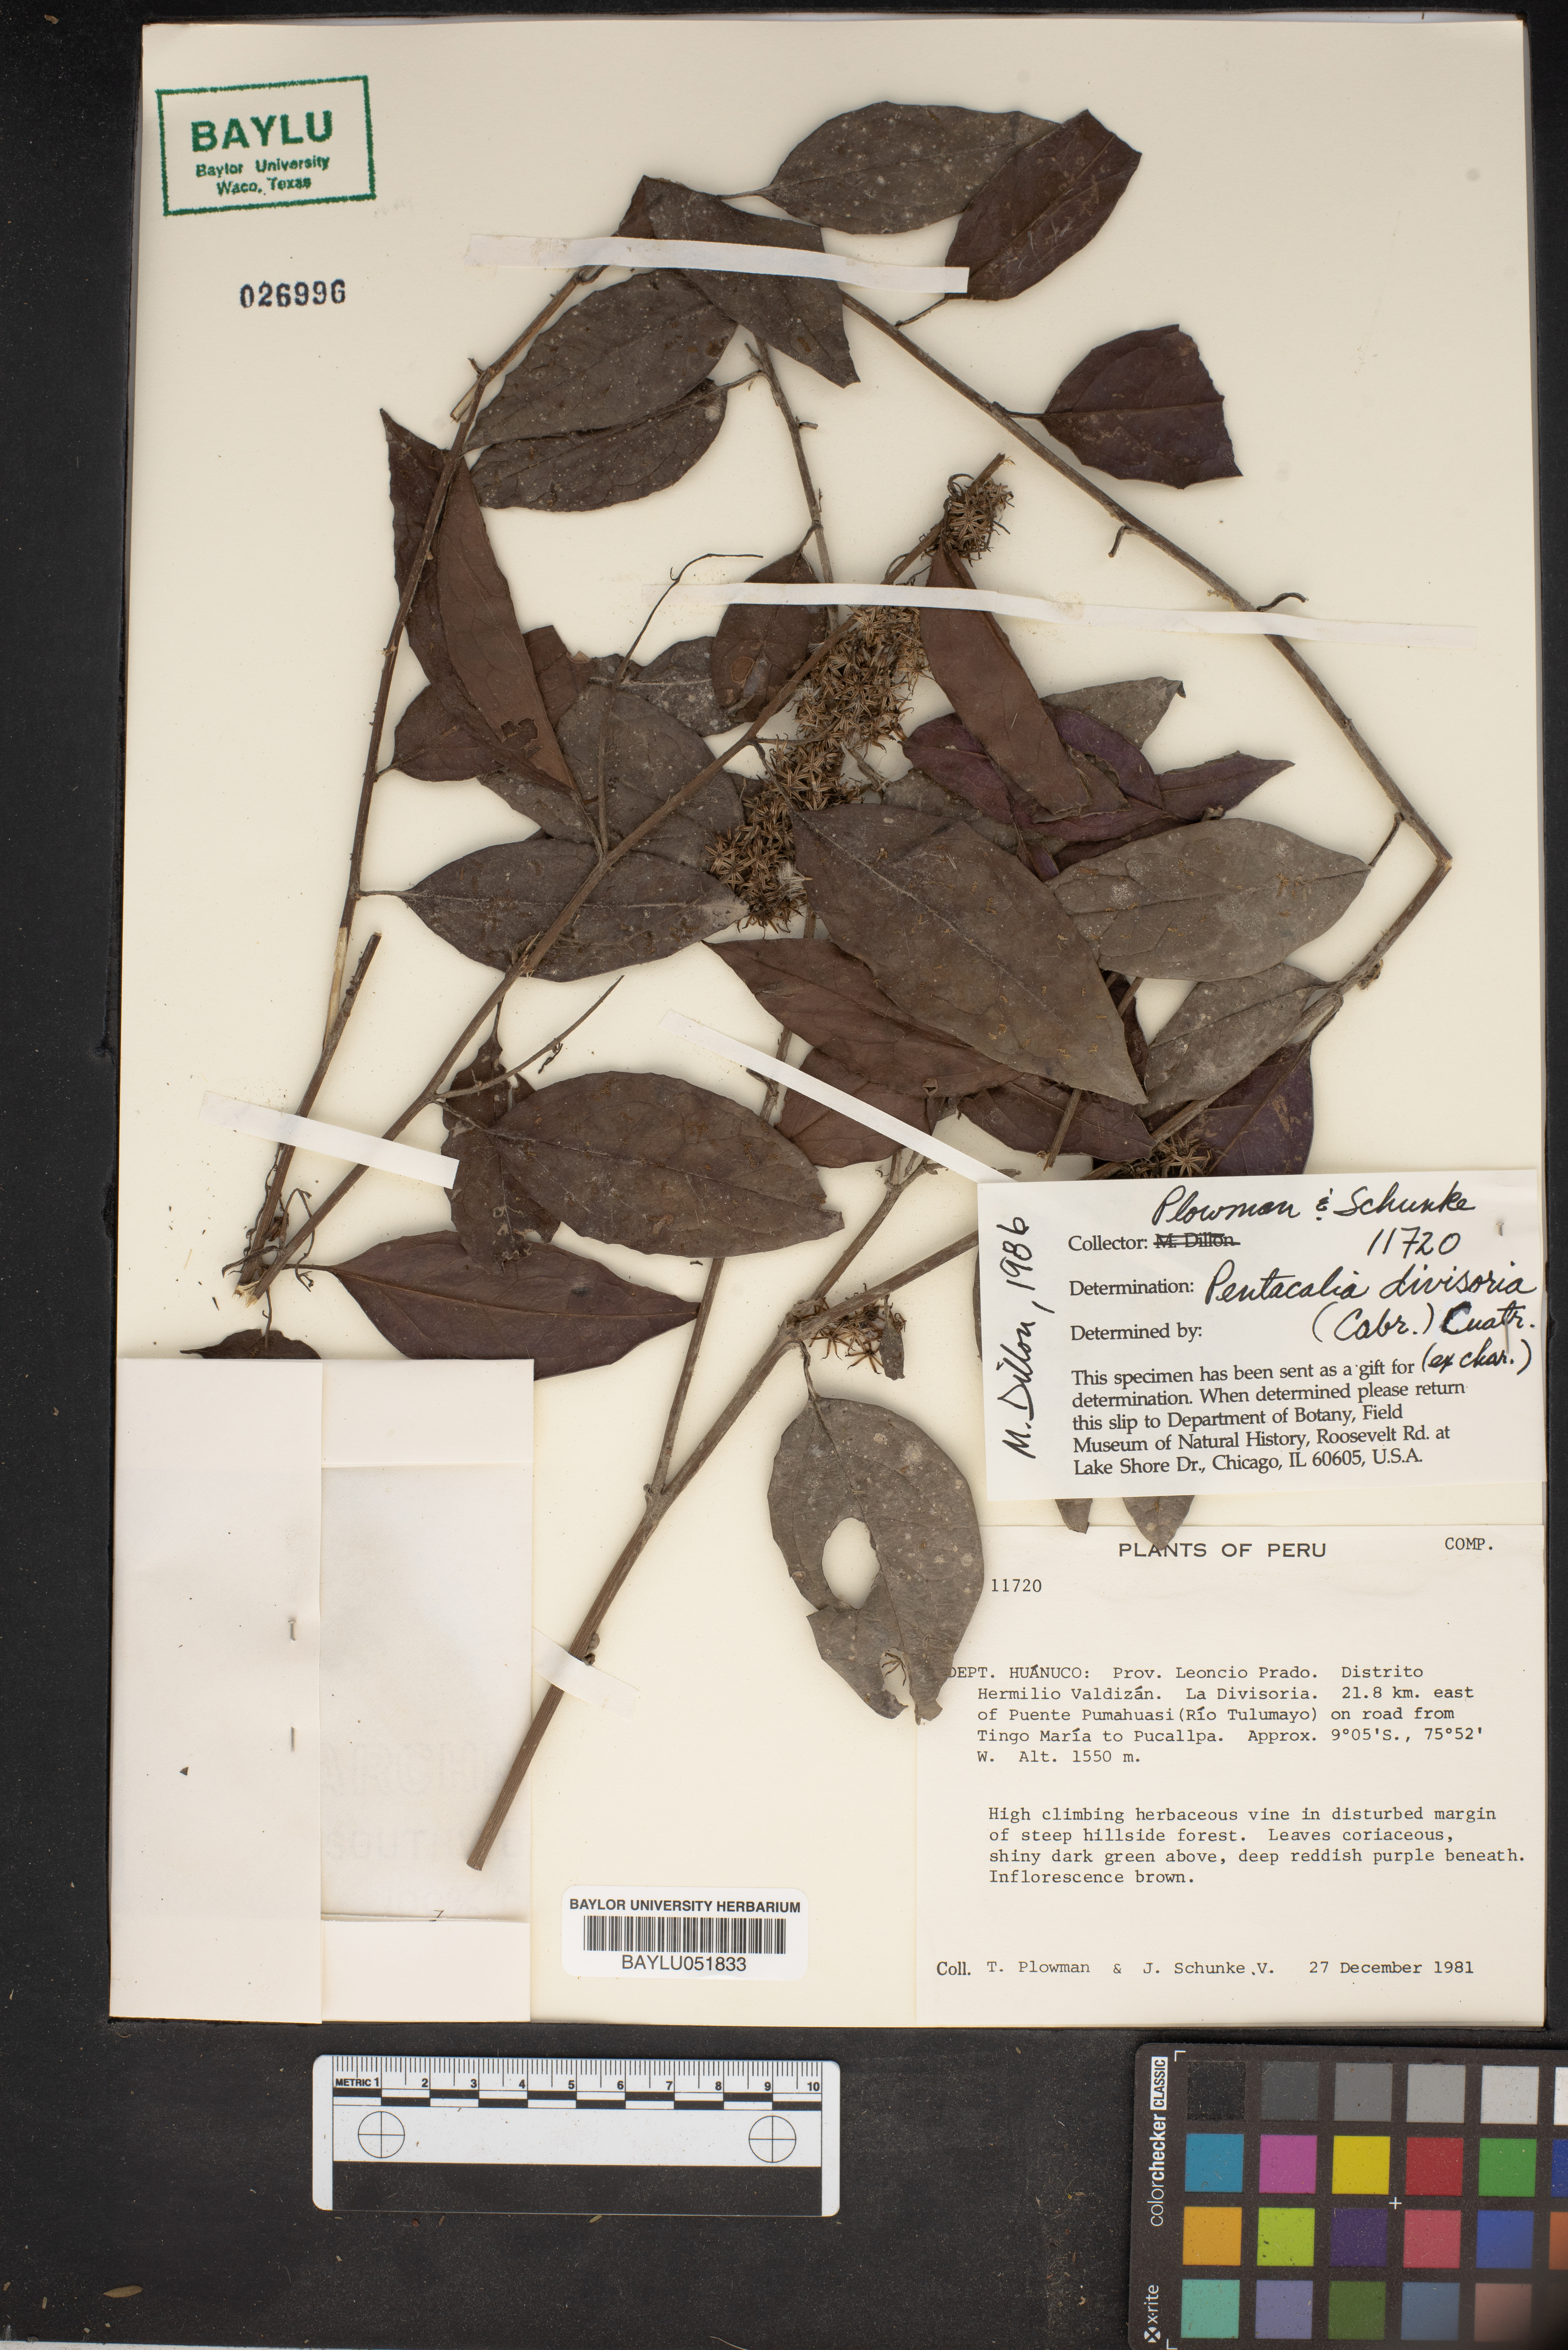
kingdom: Plantae
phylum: Tracheophyta
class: Magnoliopsida
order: Asterales
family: Asteraceae
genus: Pentacalia
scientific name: Pentacalia divisoria
